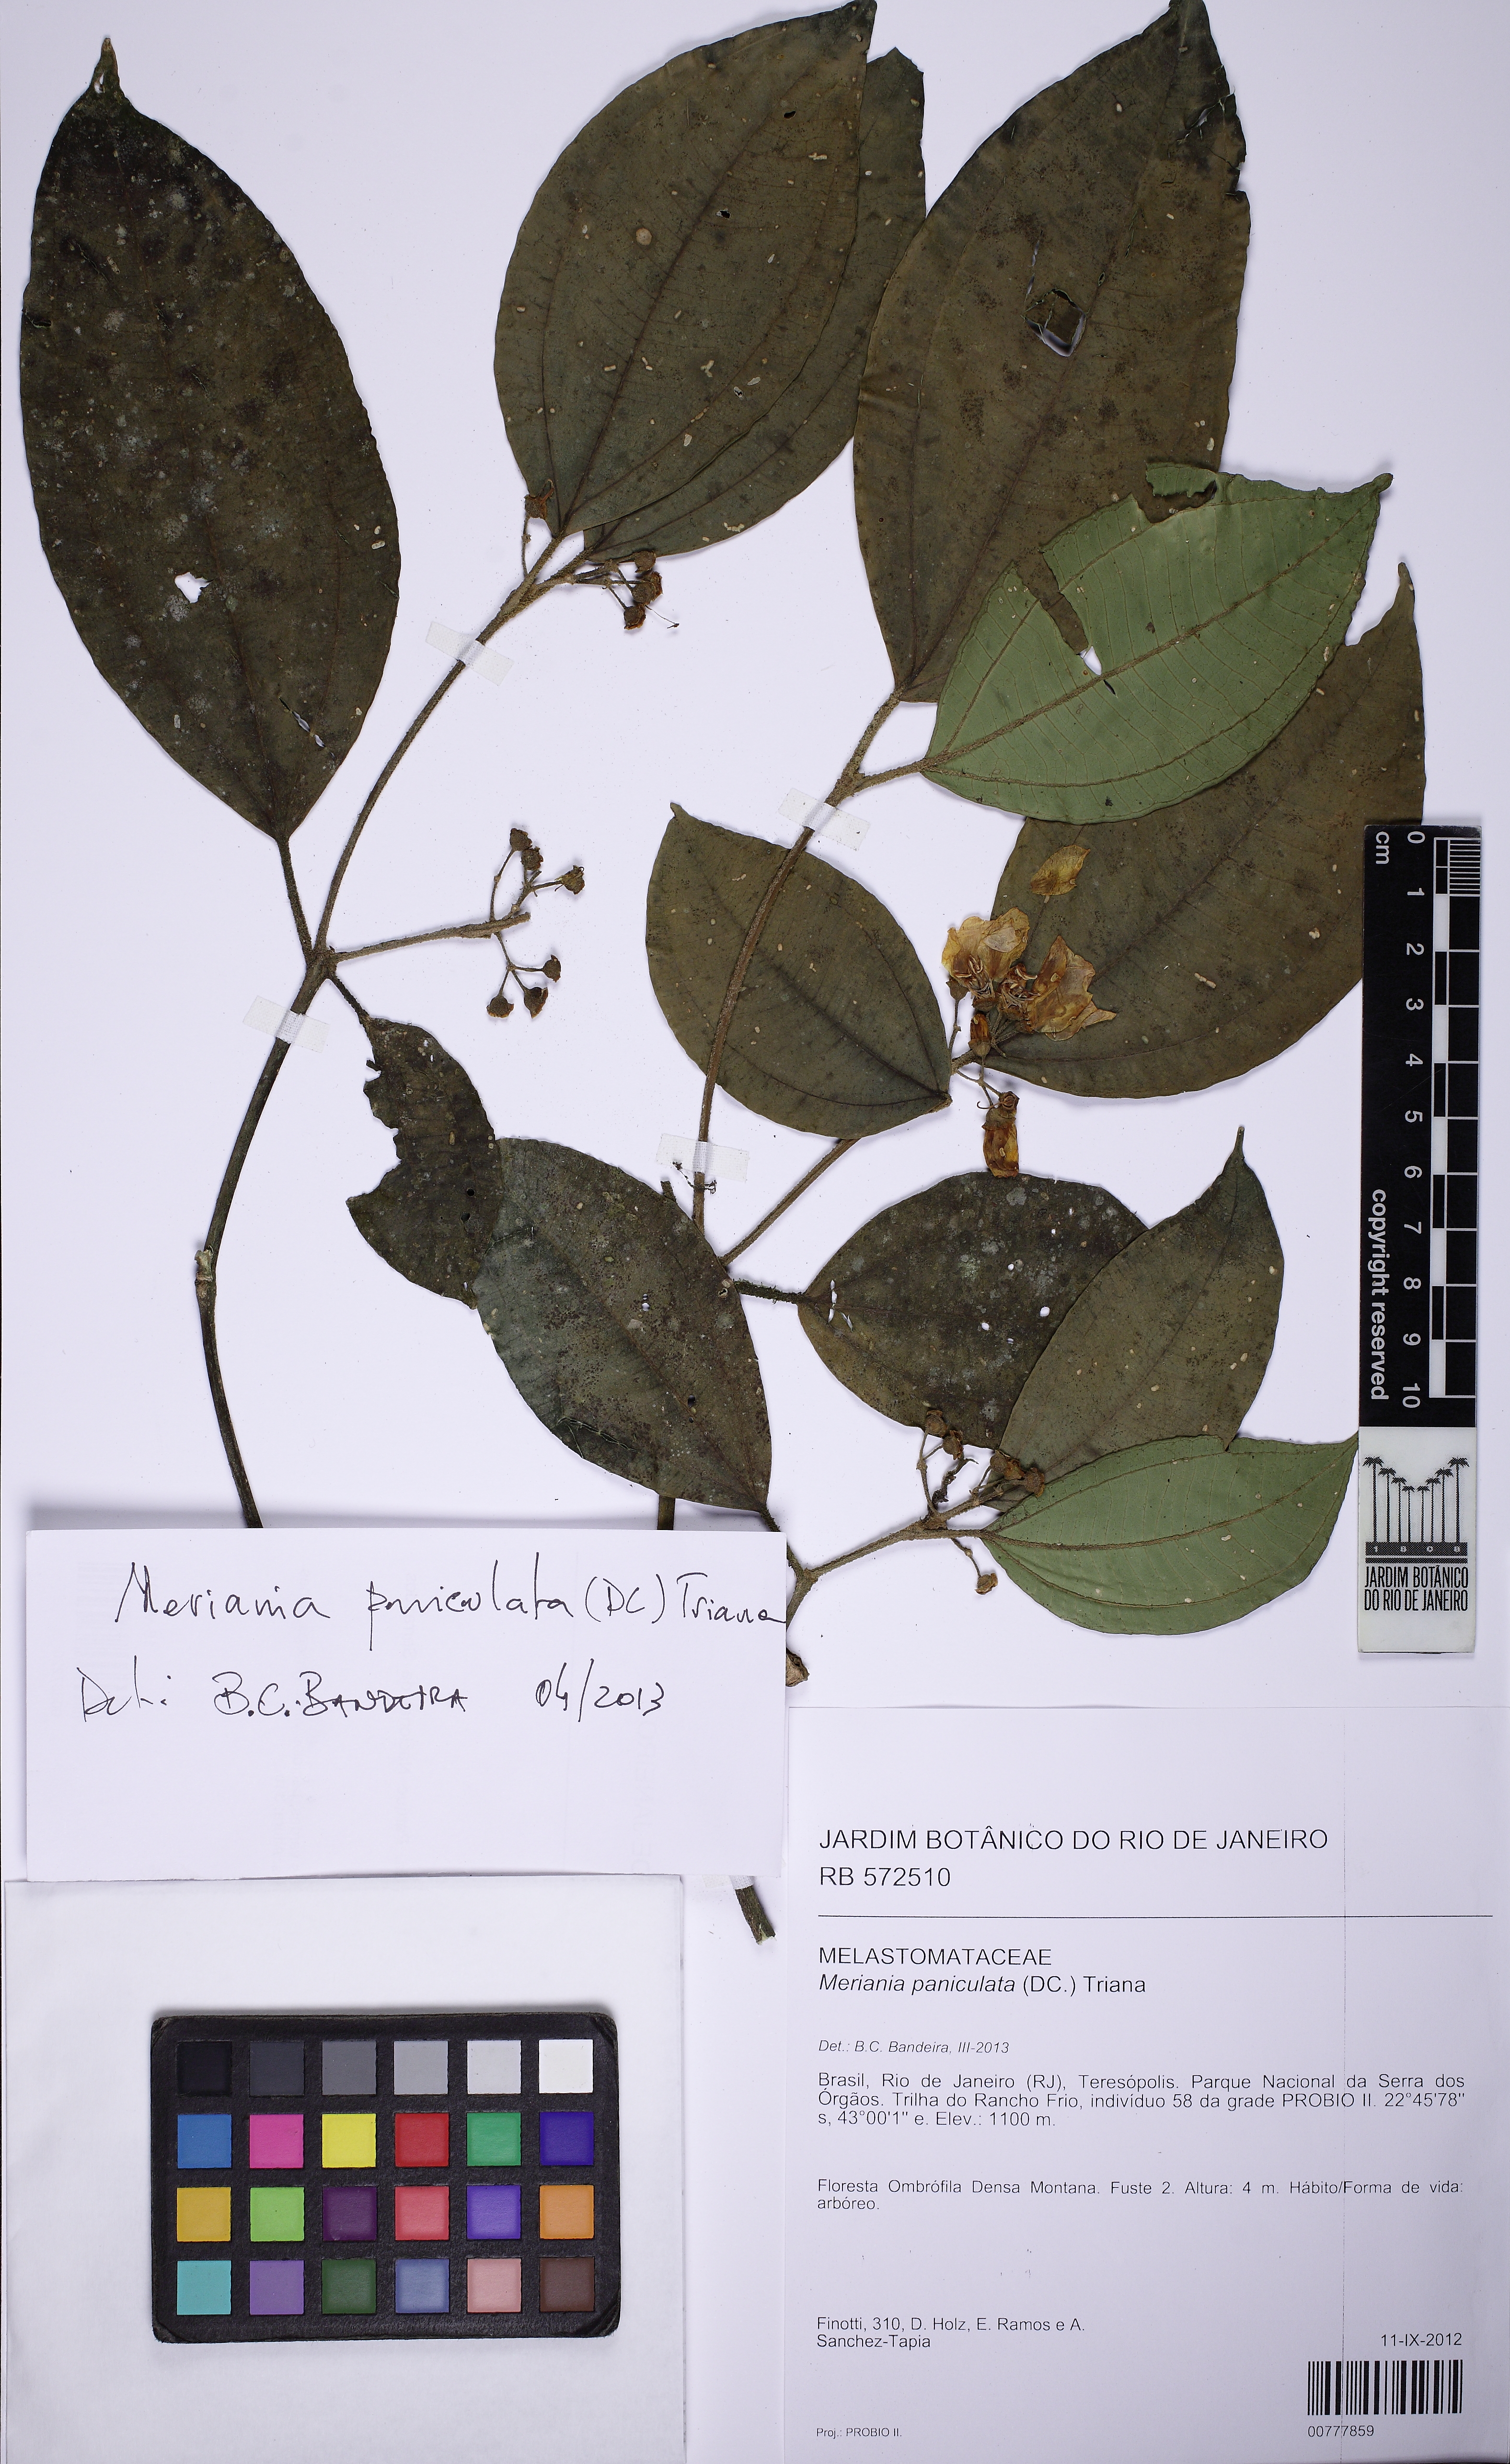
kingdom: Plantae
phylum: Tracheophyta
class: Magnoliopsida
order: Myrtales
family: Melastomataceae
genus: Meriania
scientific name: Meriania paniculata
